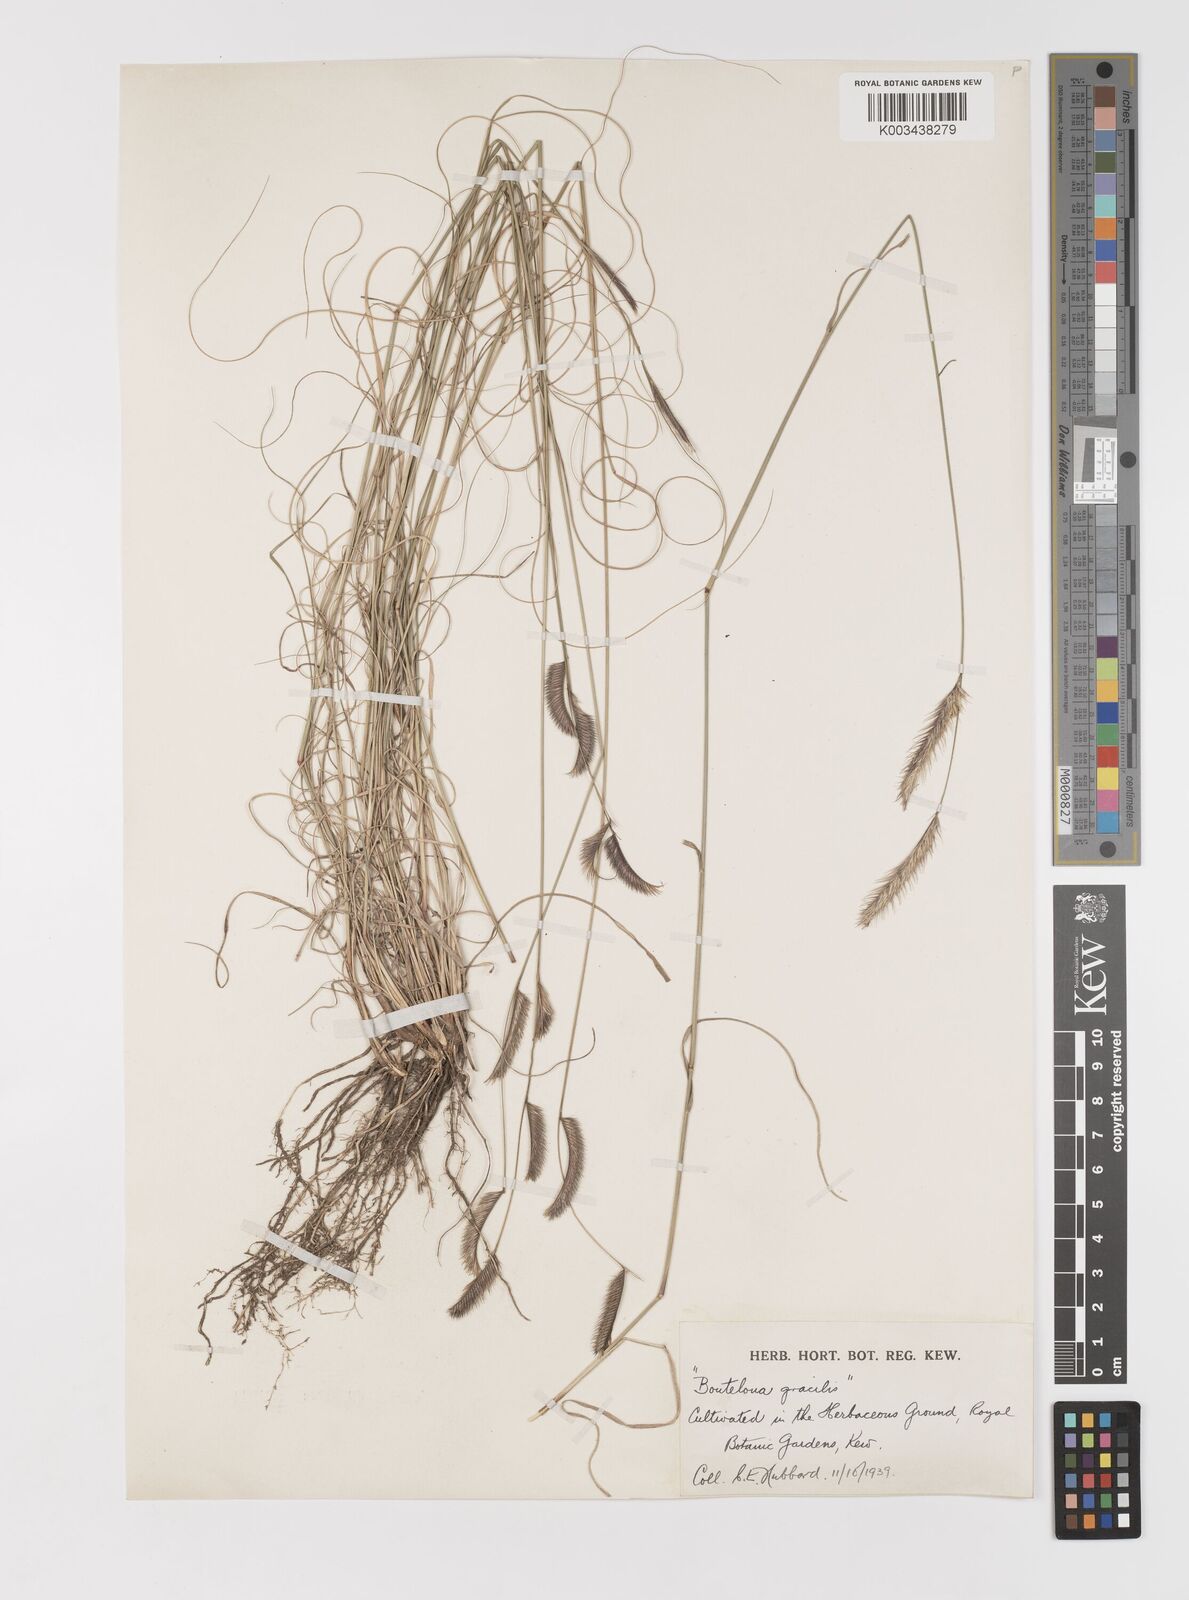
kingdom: Plantae
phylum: Tracheophyta
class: Liliopsida
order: Poales
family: Poaceae
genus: Bouteloua
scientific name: Bouteloua gracilis
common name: Blue grama
